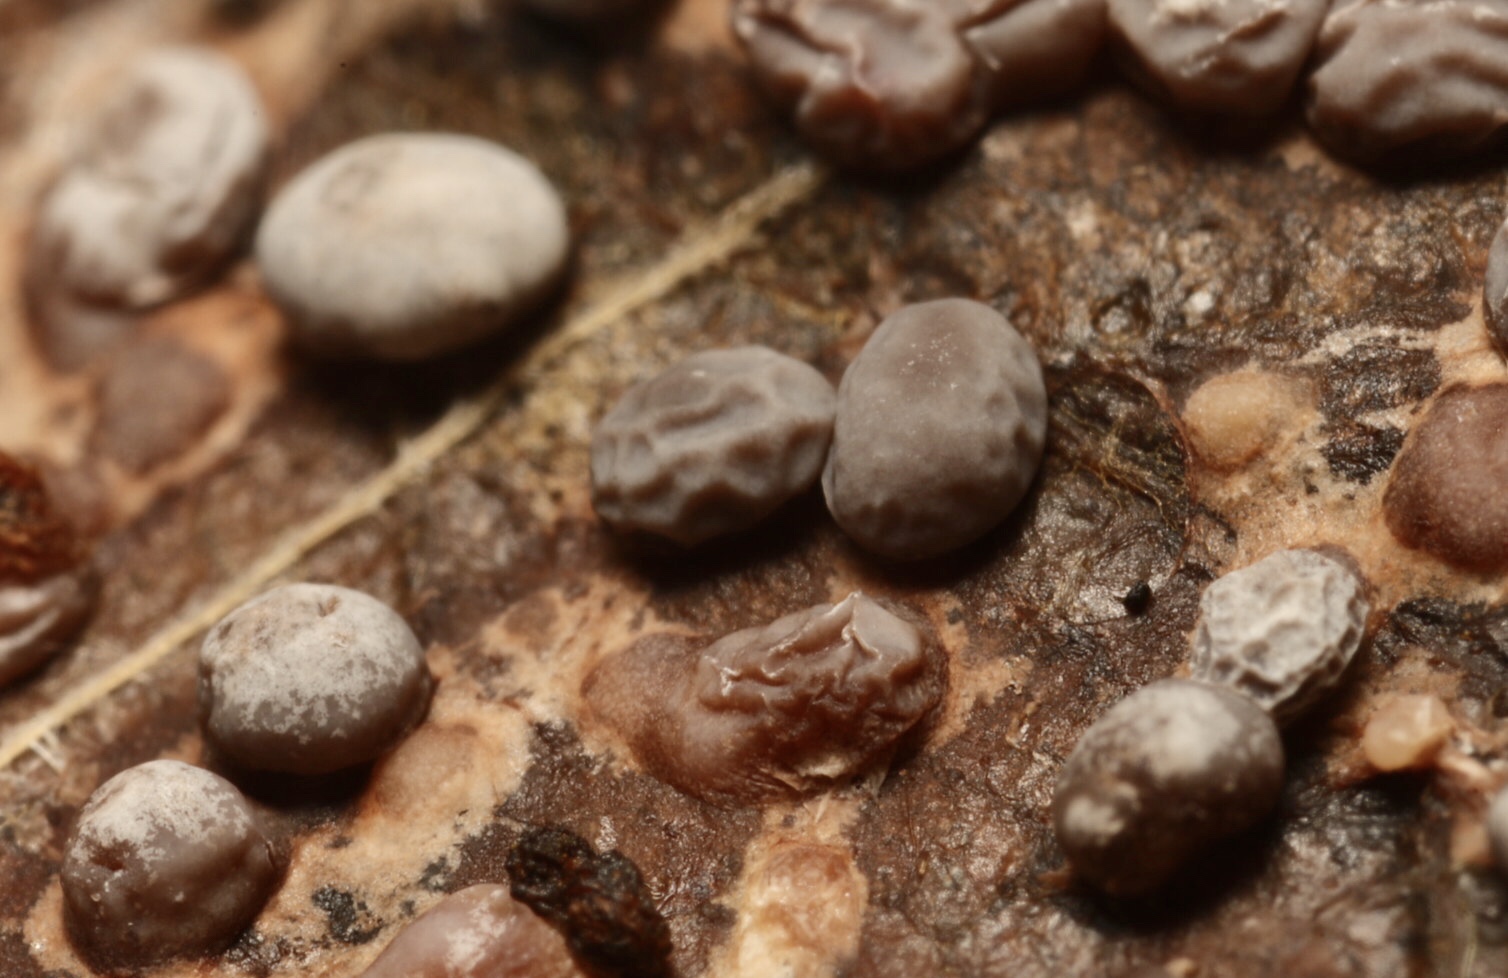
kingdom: Protozoa
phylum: Mycetozoa
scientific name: Mycetozoa
